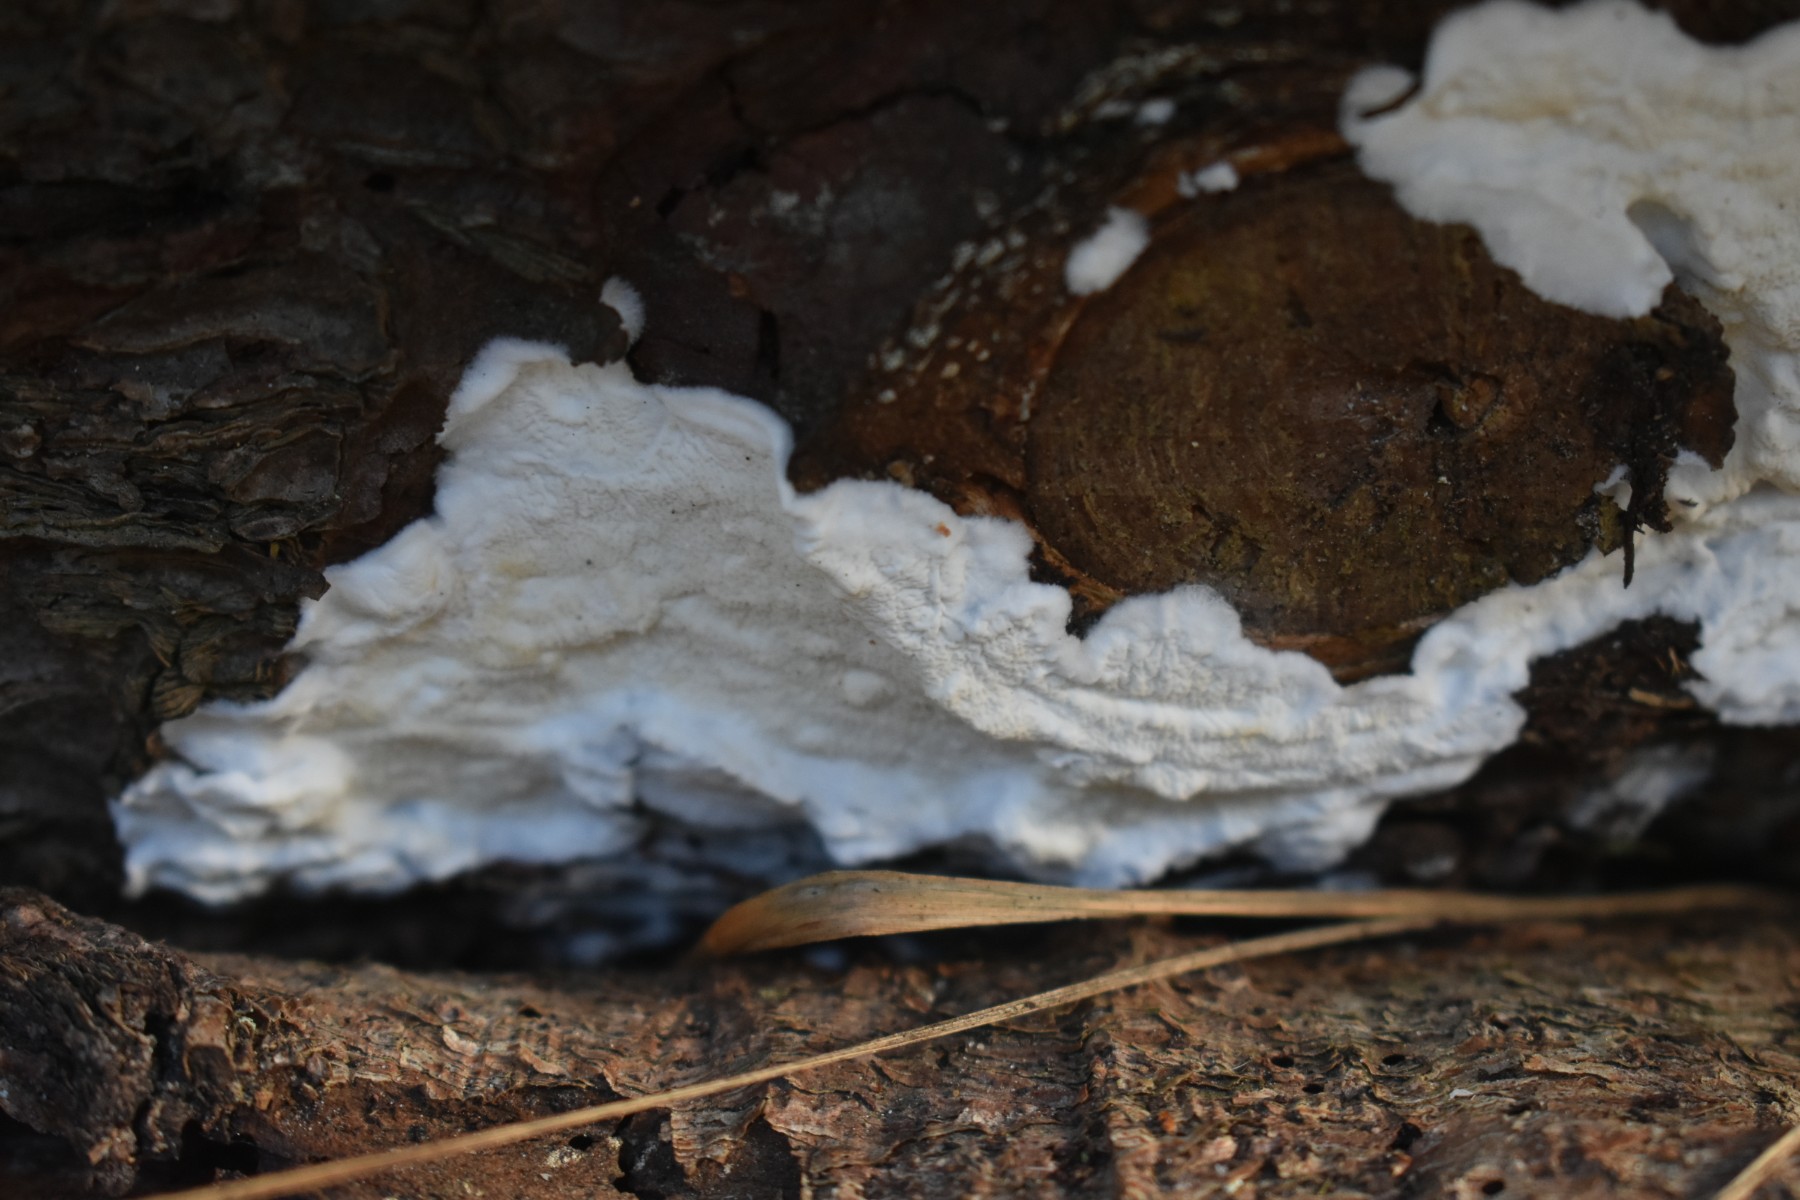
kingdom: Fungi
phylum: Basidiomycota
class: Agaricomycetes
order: Polyporales
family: Irpicaceae
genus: Byssomerulius
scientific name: Byssomerulius corium
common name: læder-åresvamp
